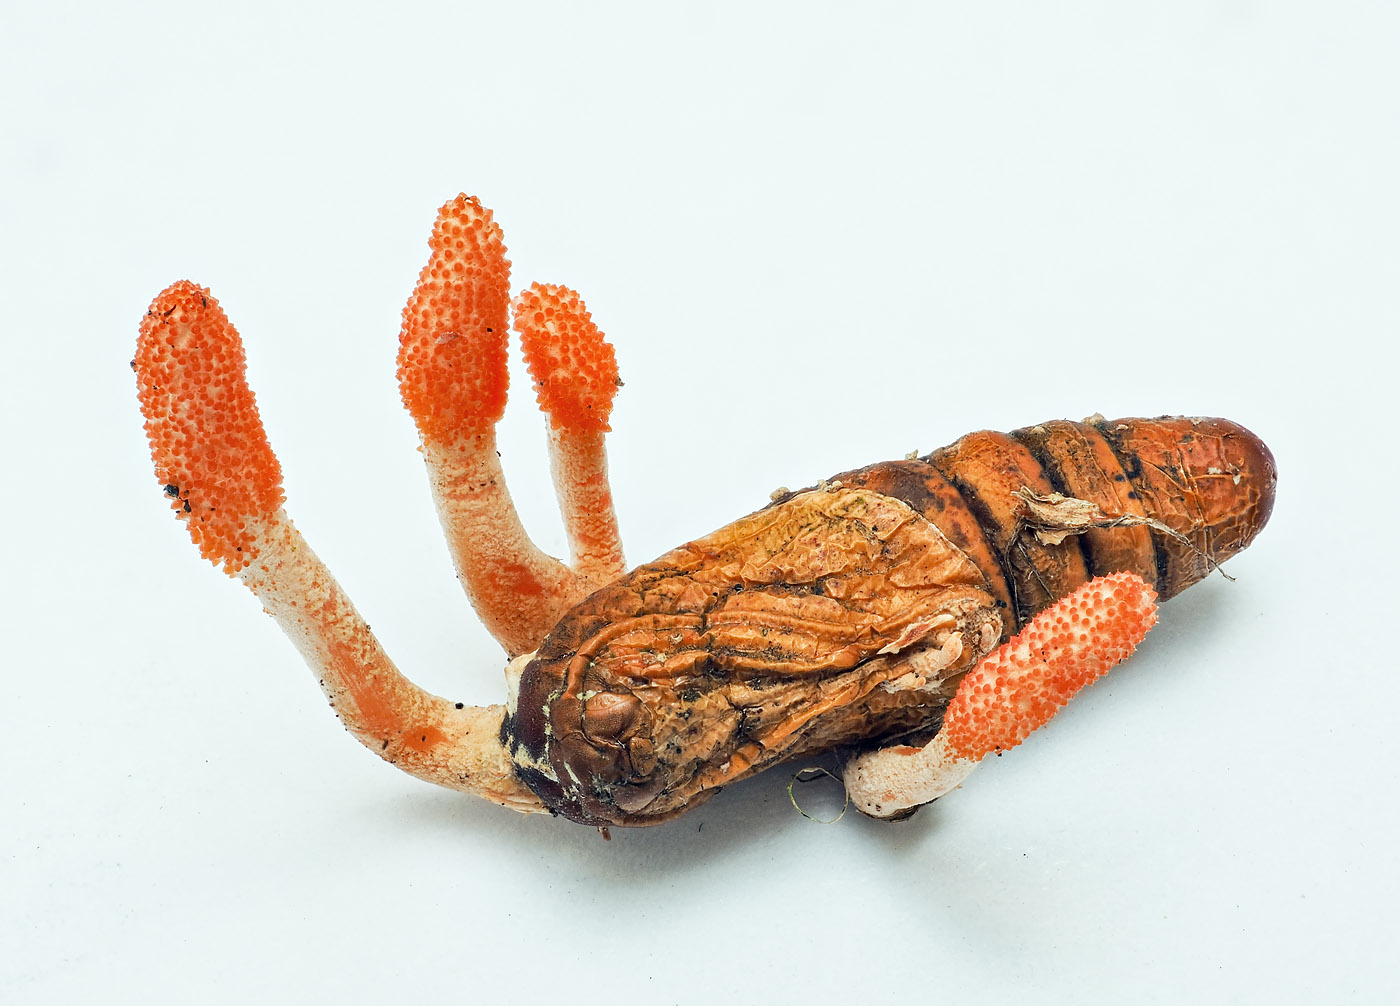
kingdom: Fungi
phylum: Ascomycota
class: Sordariomycetes
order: Hypocreales
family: Cordycipitaceae
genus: Cordyceps
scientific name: Cordyceps militaris
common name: puppe-snyltekølle
